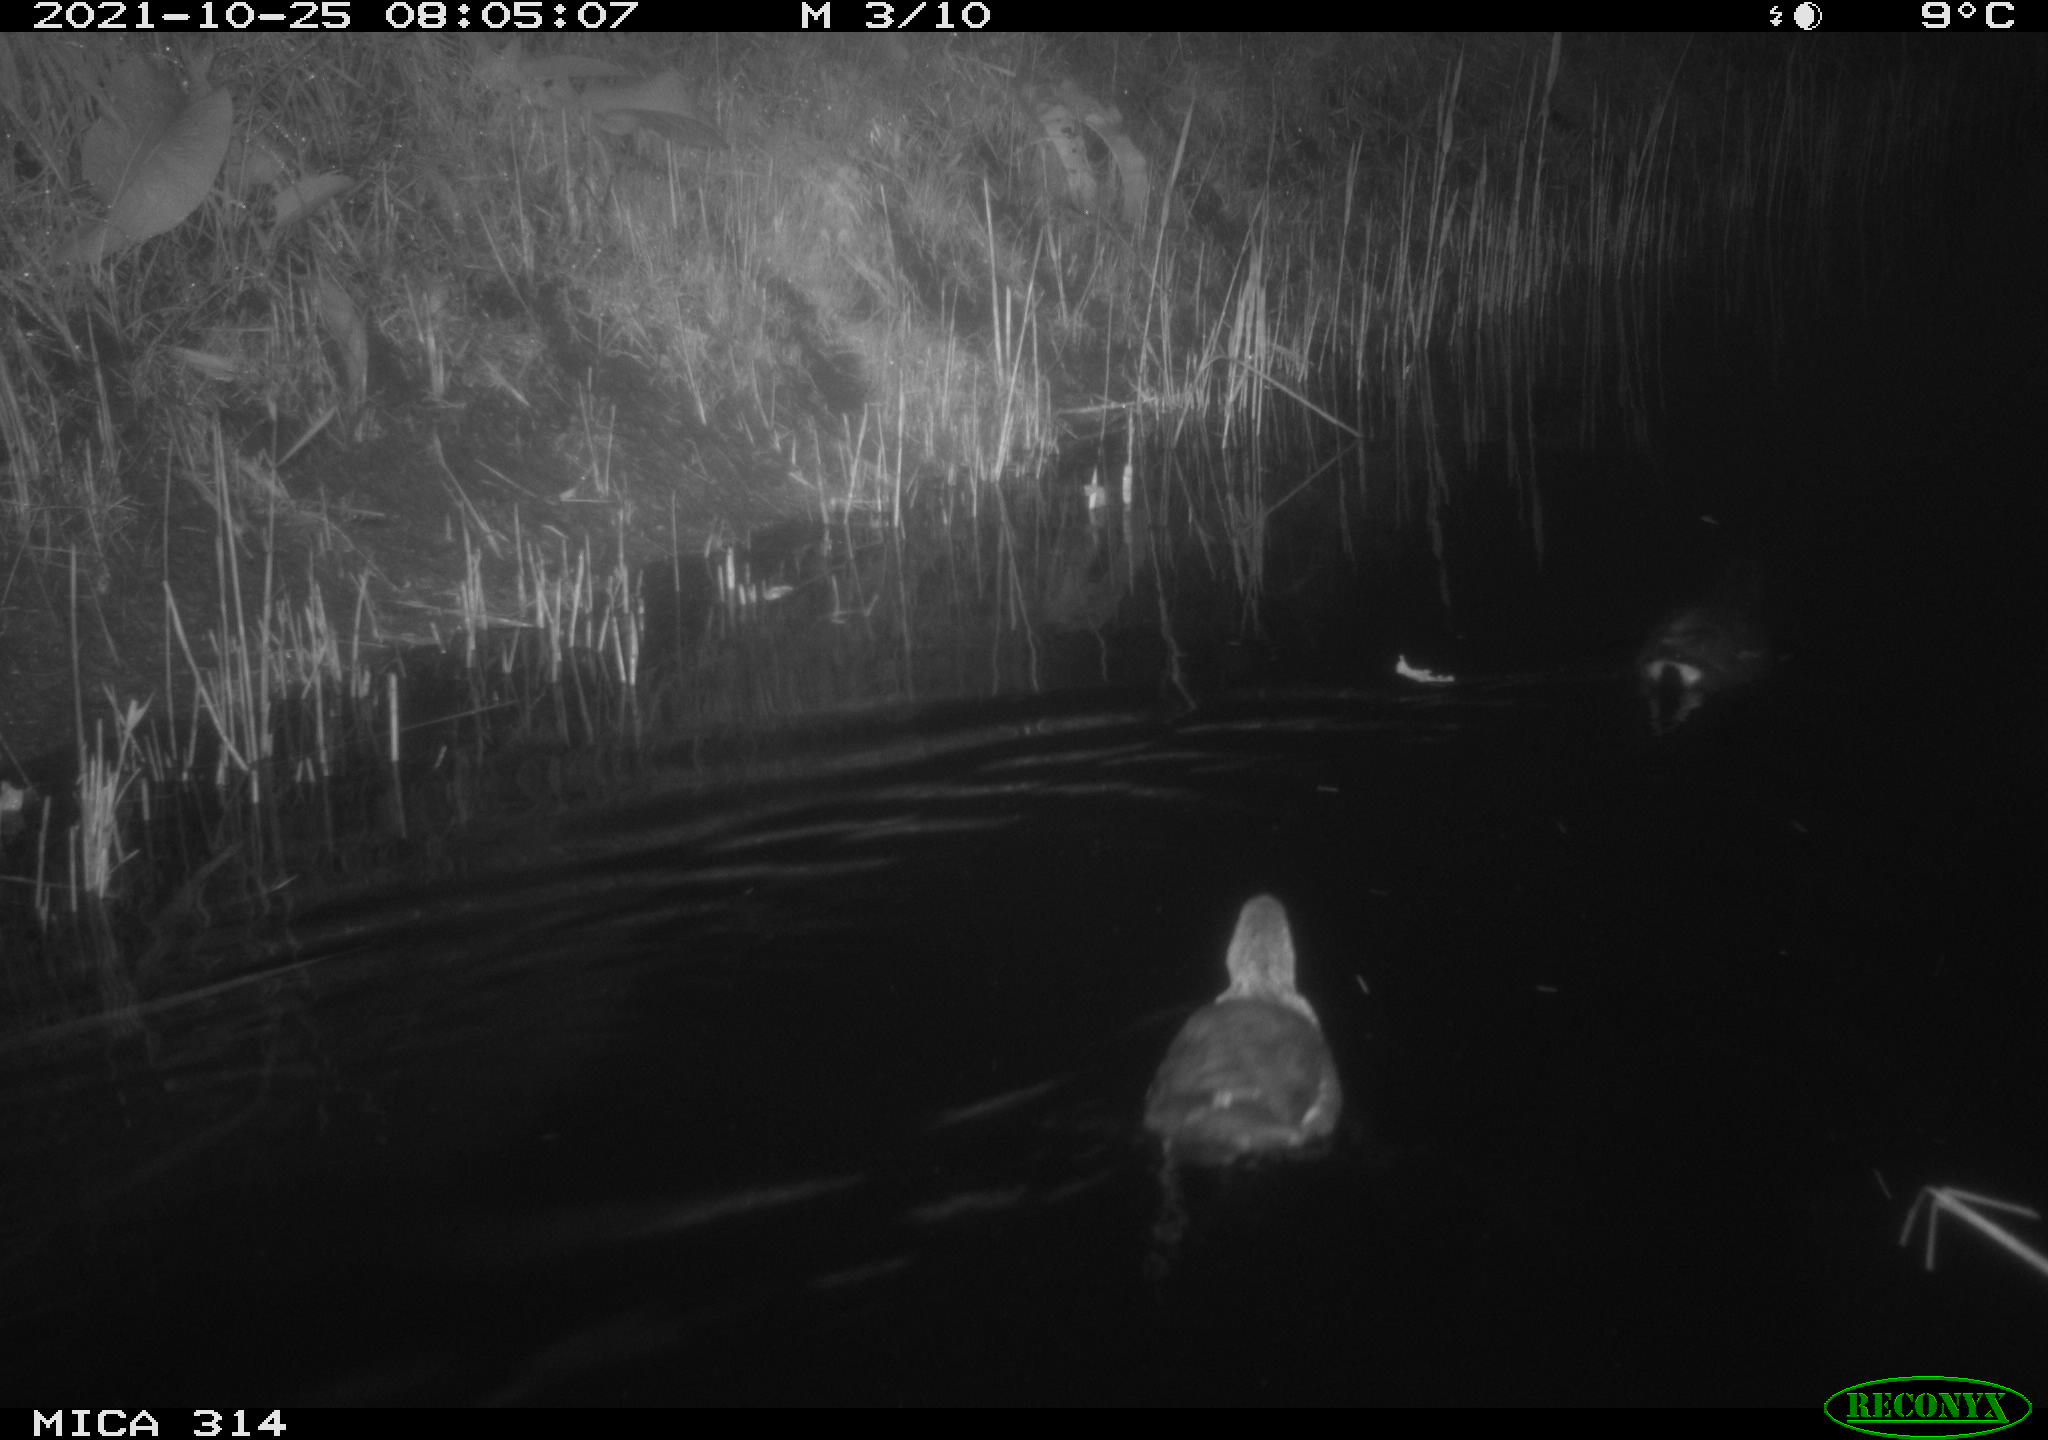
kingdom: Animalia
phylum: Chordata
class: Aves
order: Gruiformes
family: Rallidae
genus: Gallinula
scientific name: Gallinula chloropus
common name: Common moorhen
